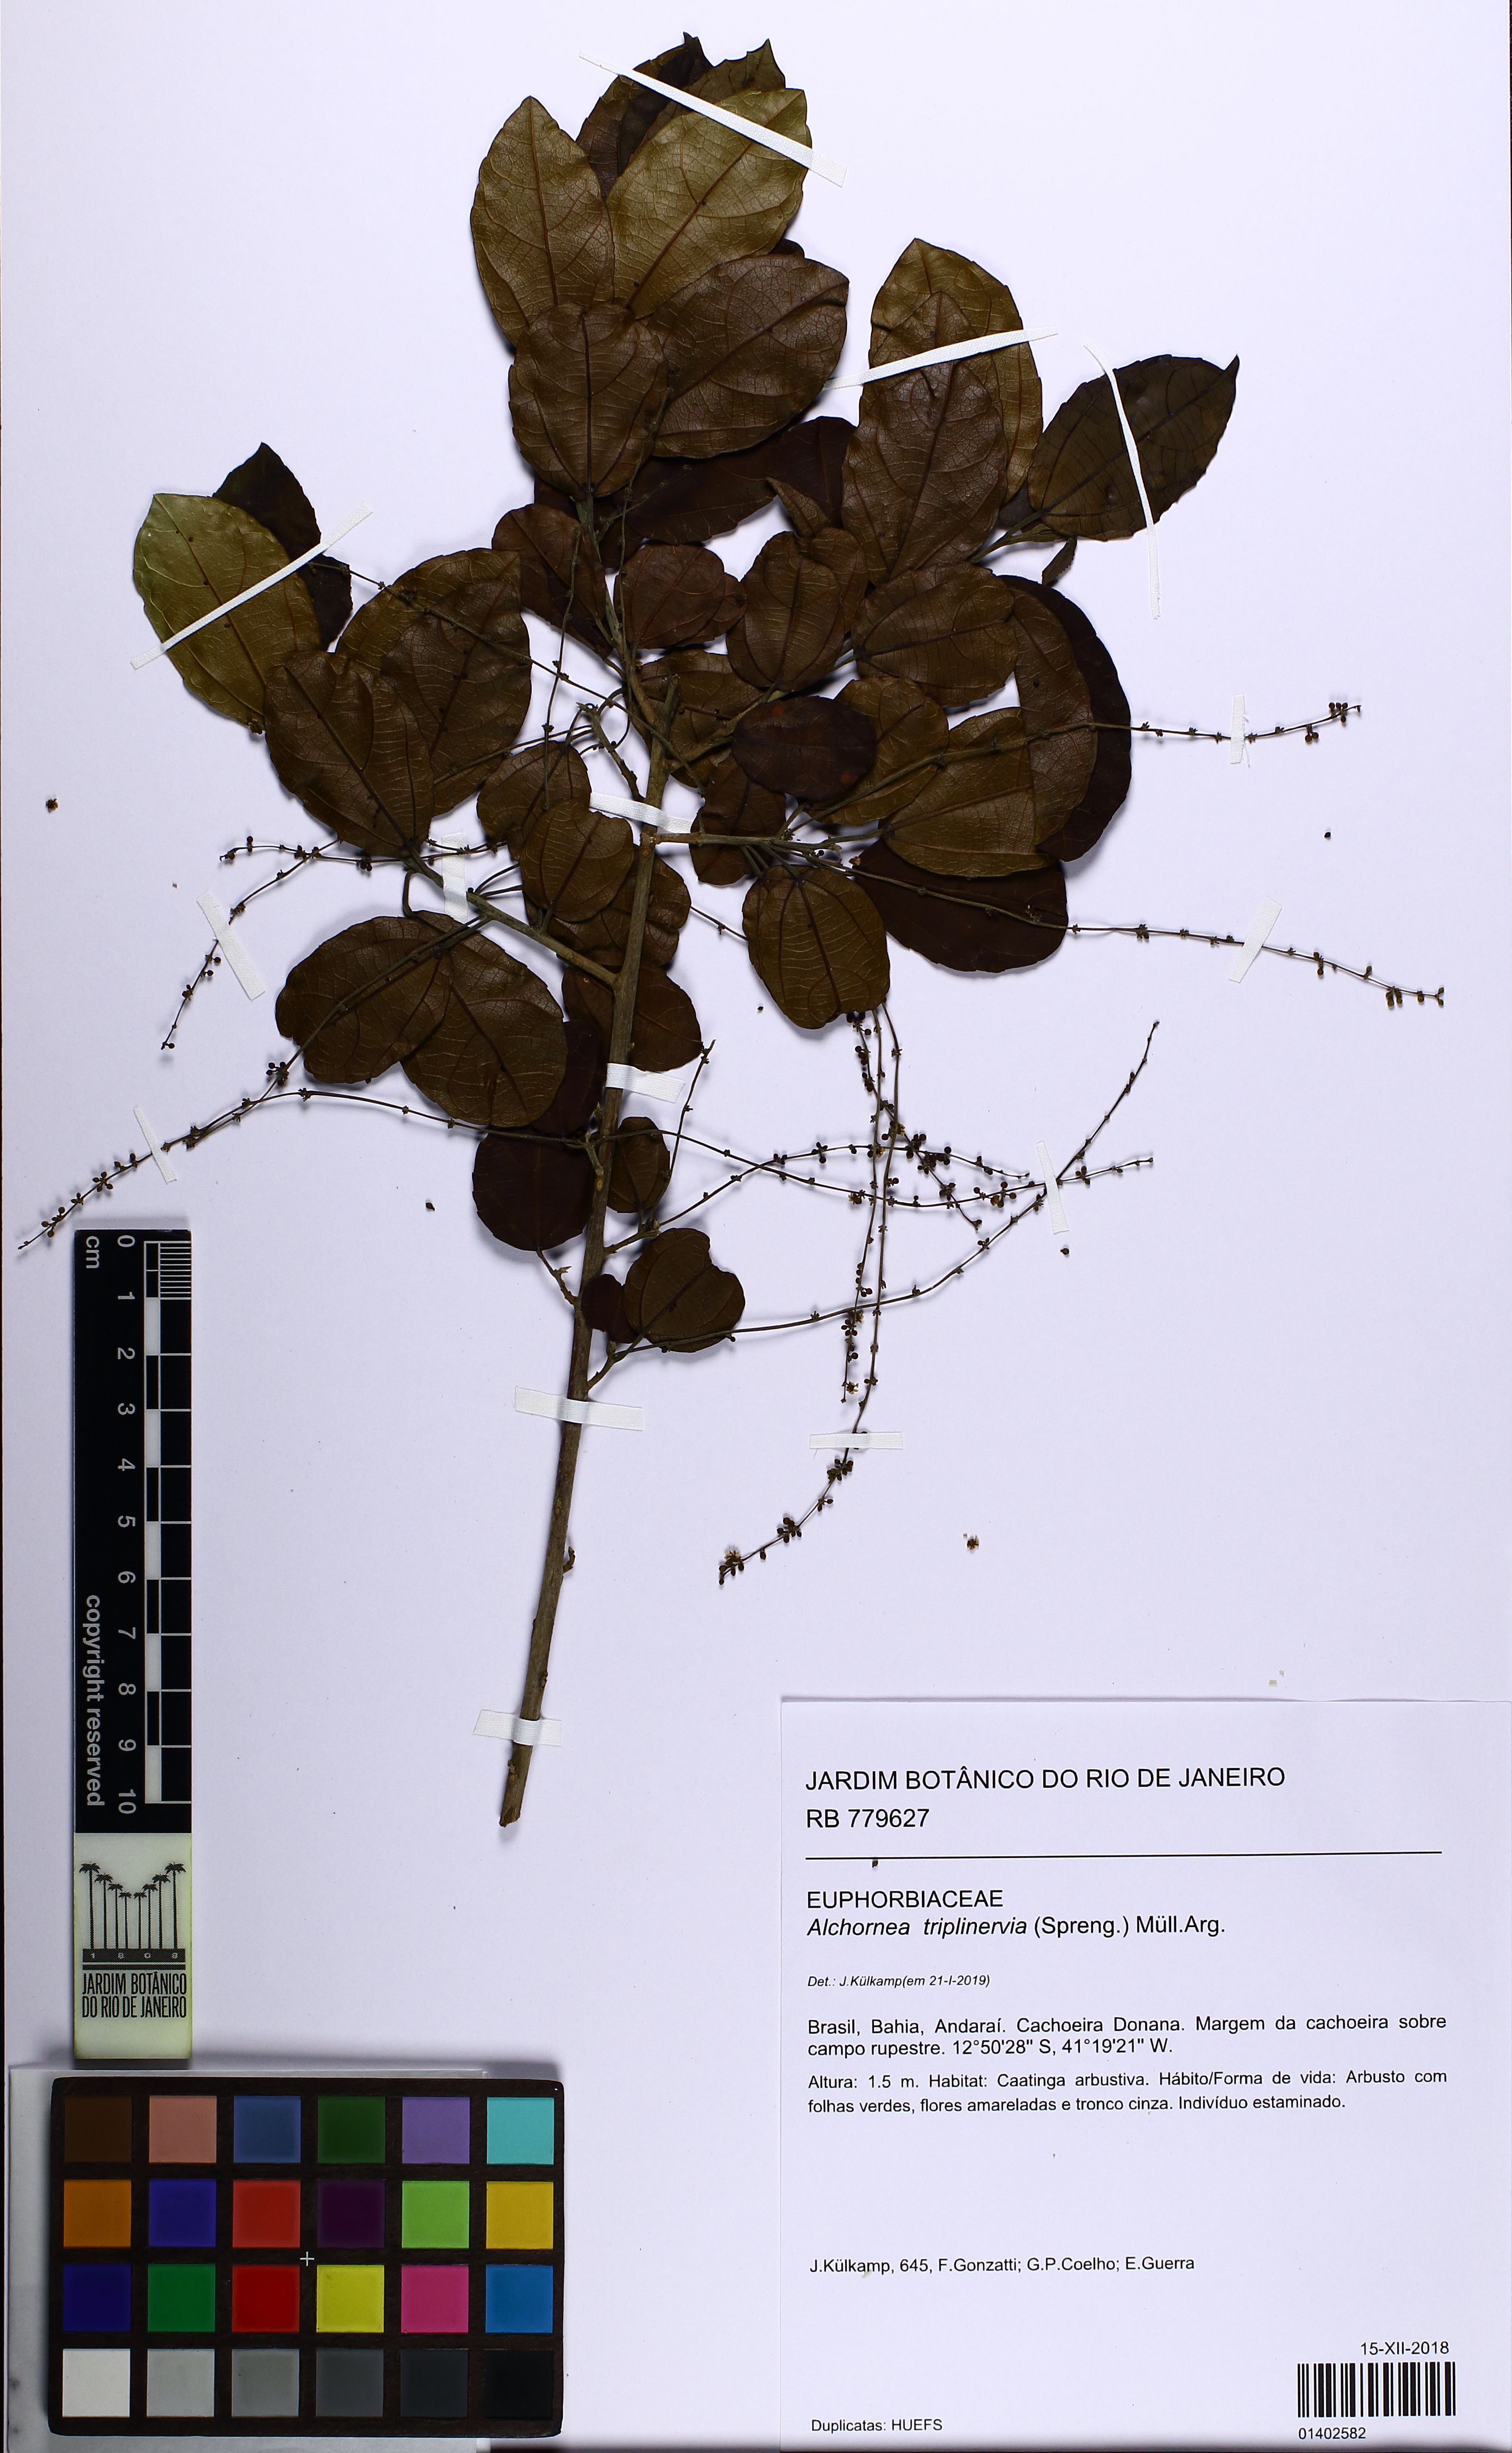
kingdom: Plantae
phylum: Tracheophyta
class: Magnoliopsida
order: Malpighiales
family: Euphorbiaceae
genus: Alchornea
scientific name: Alchornea triplinervia
